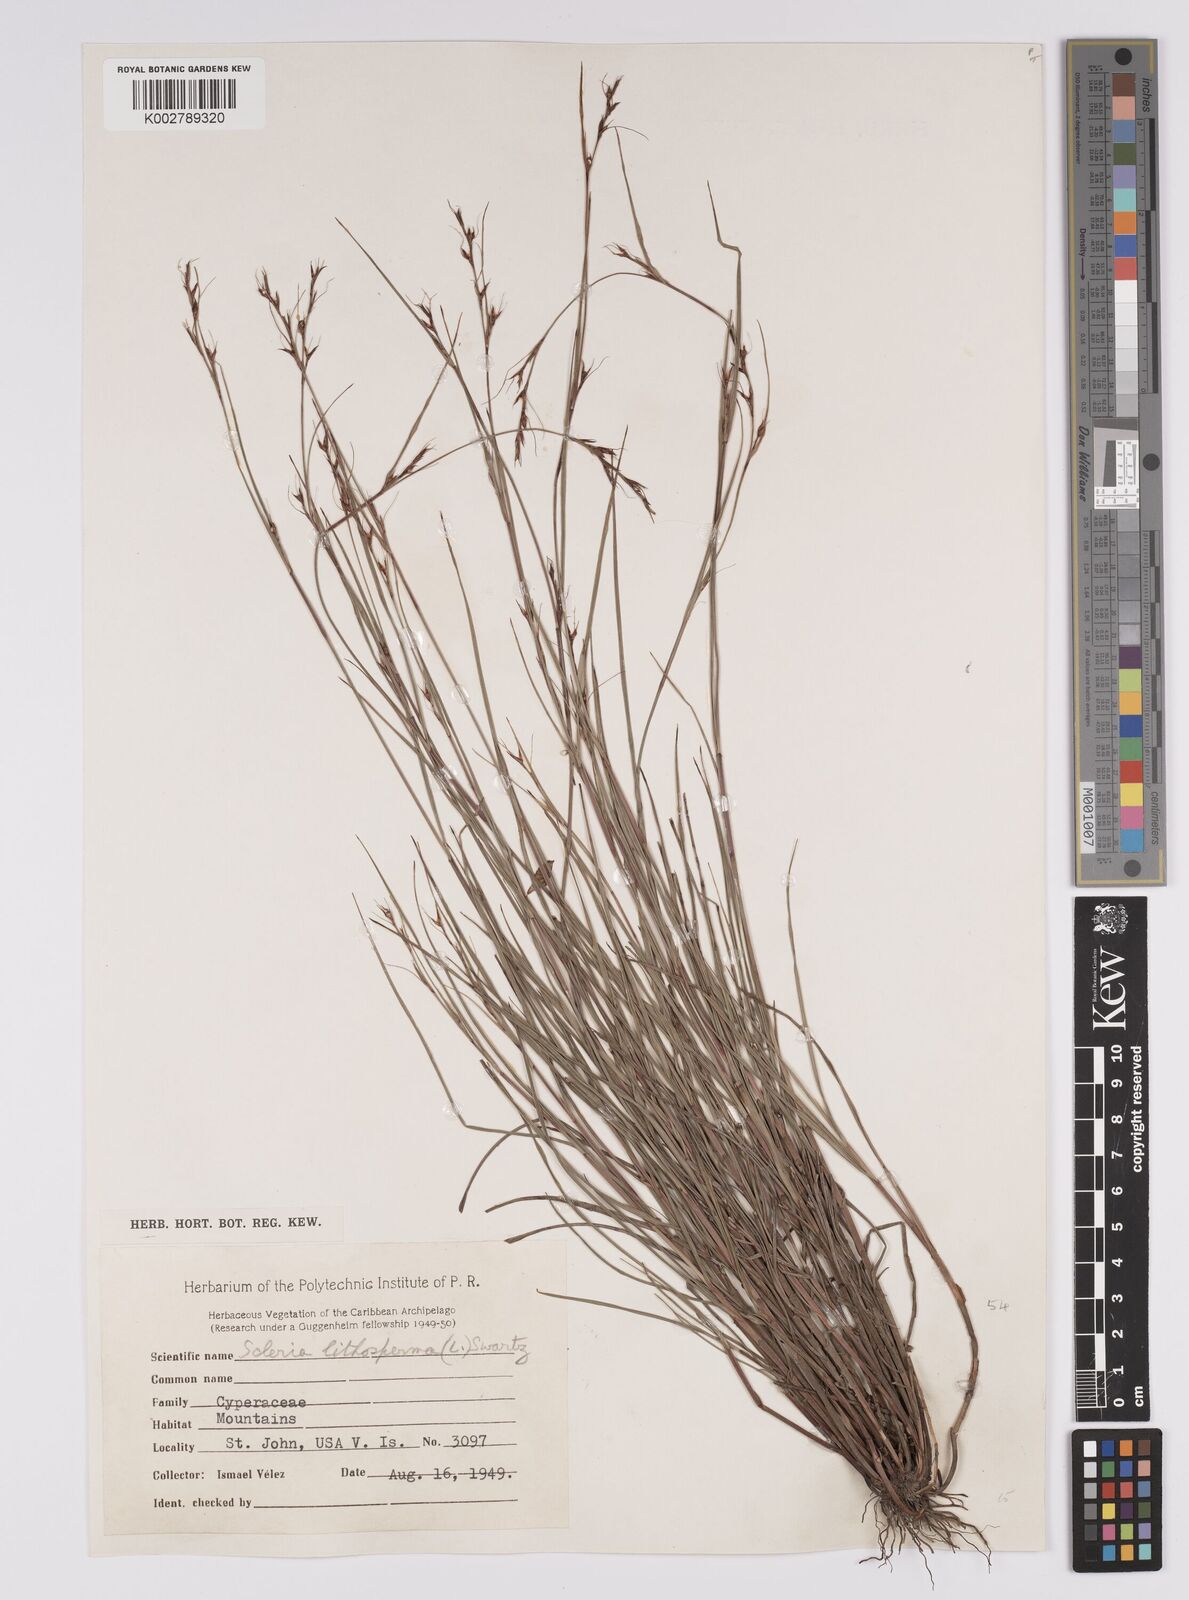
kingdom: Plantae
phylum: Tracheophyta
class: Liliopsida
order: Poales
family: Cyperaceae
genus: Scleria
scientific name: Scleria lithosperma
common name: Florida keys nut-rush
